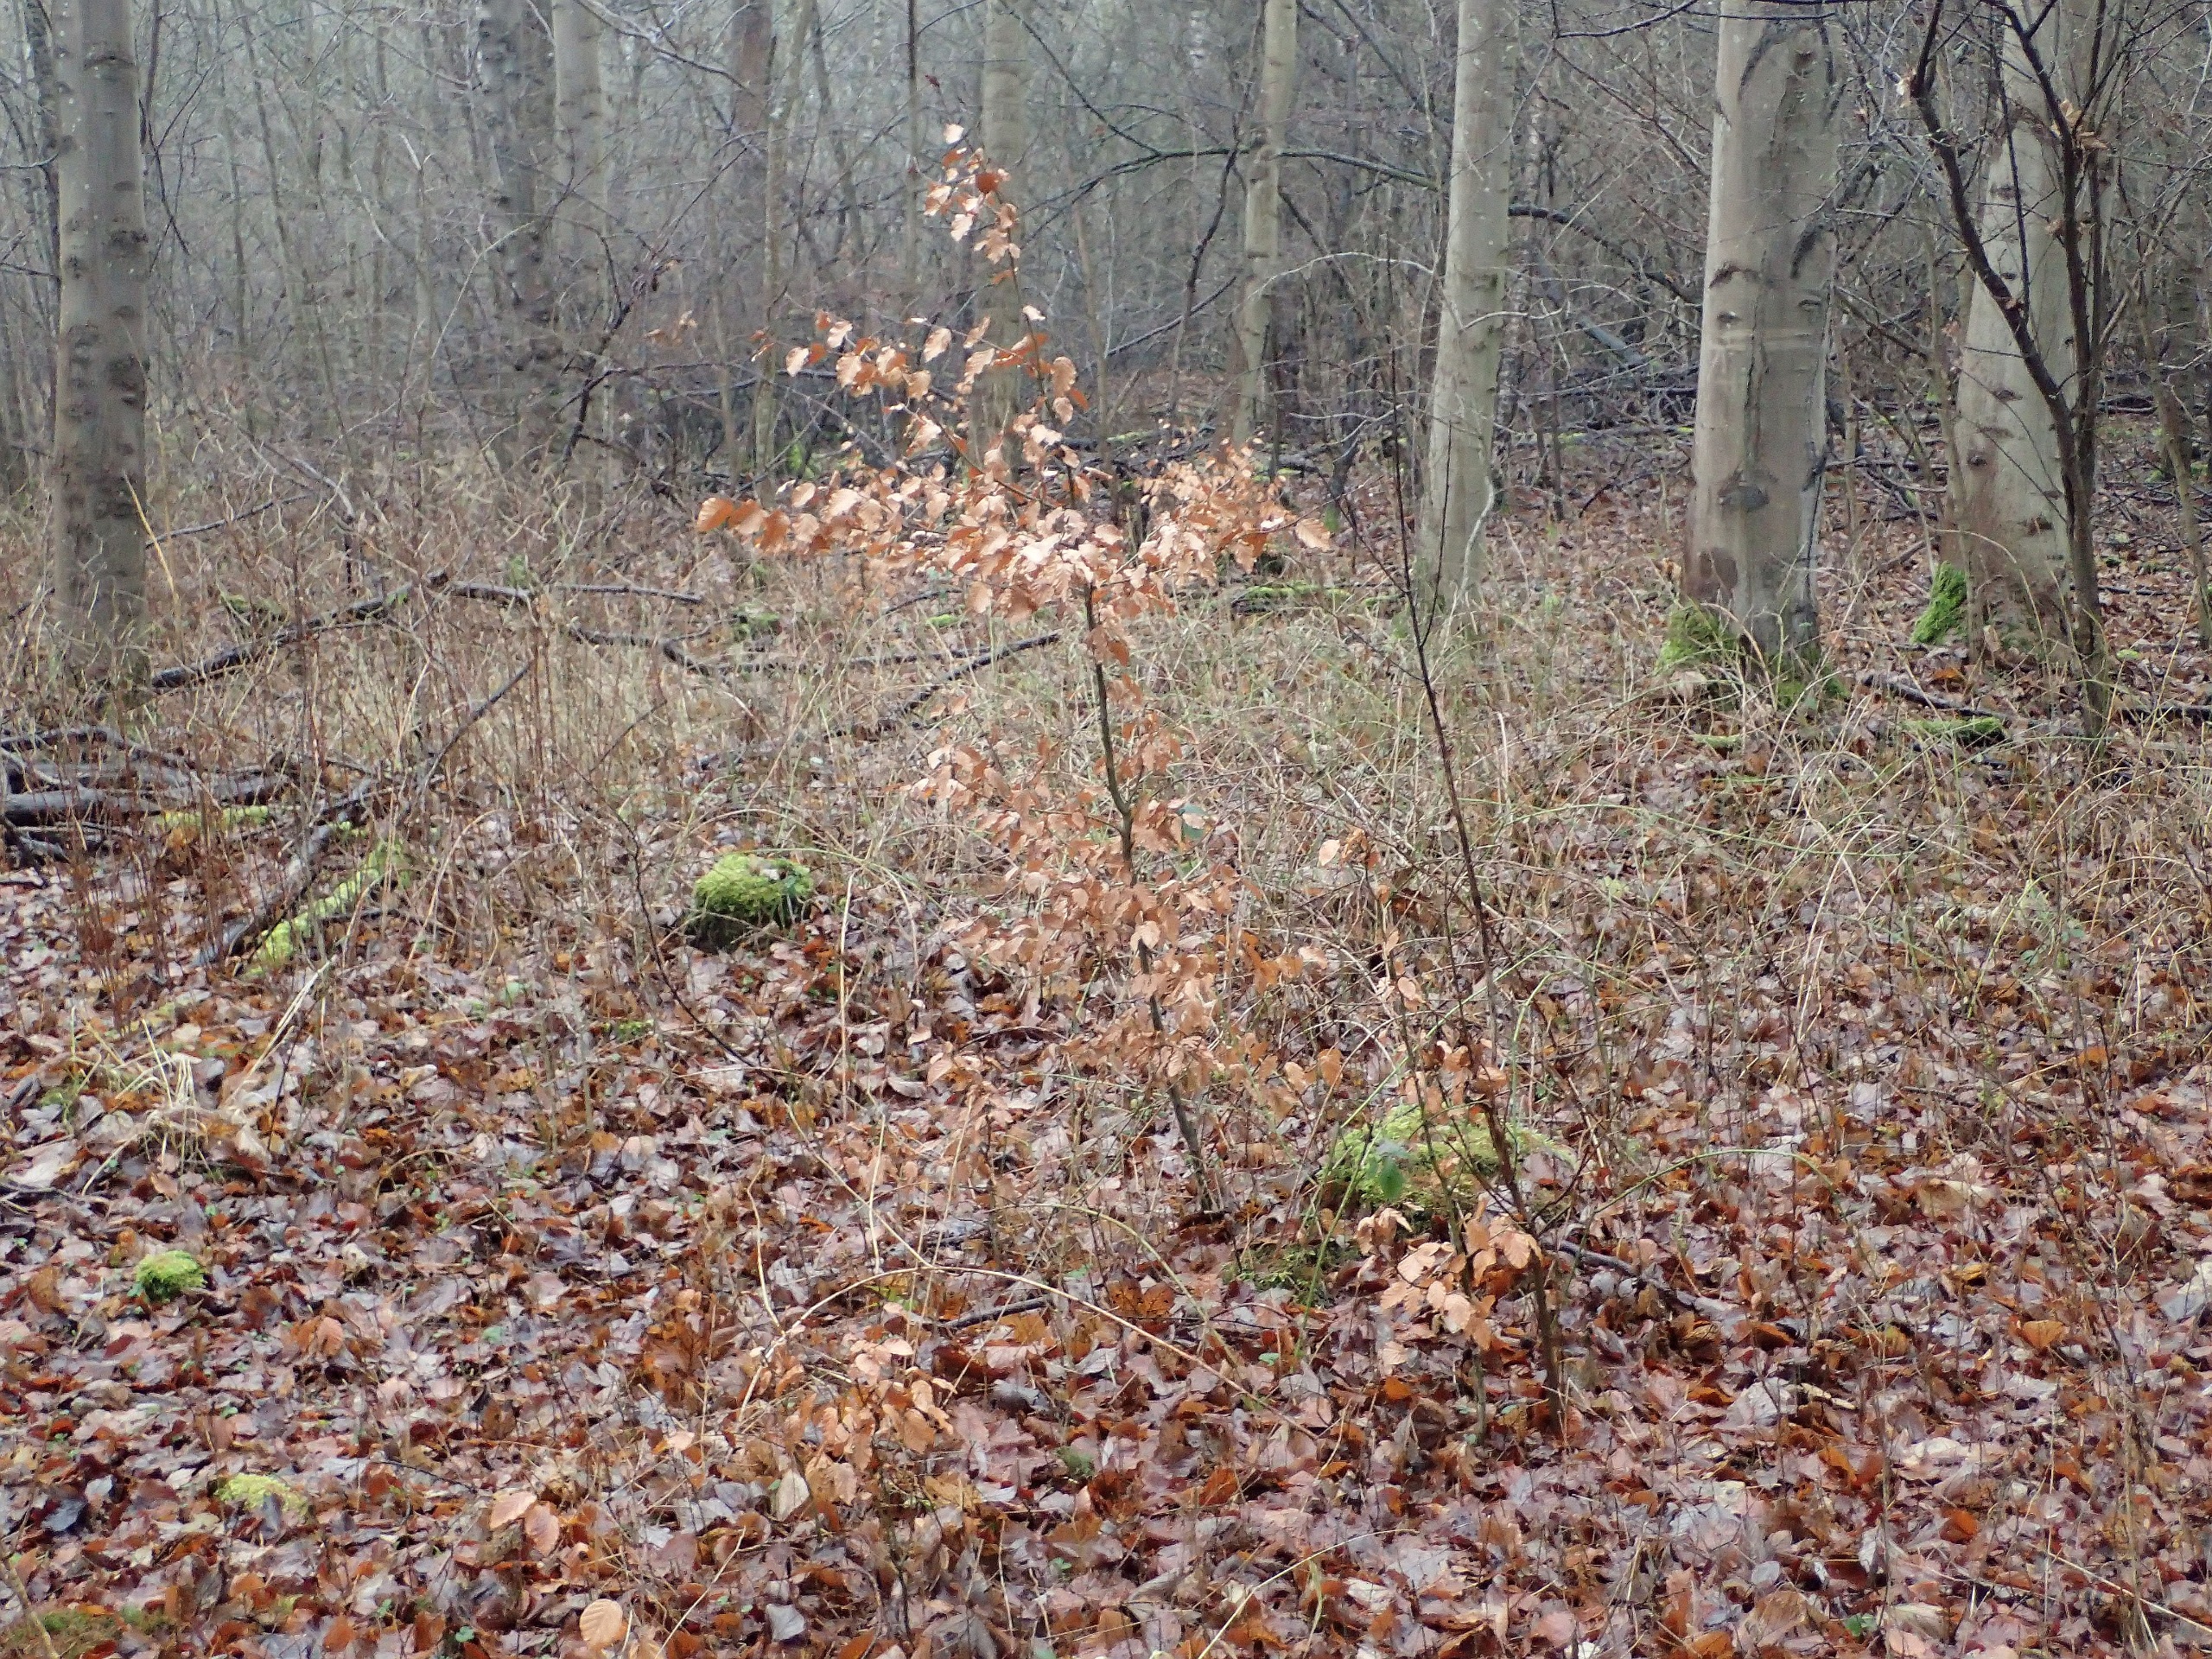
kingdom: Plantae
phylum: Tracheophyta
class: Magnoliopsida
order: Fagales
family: Fagaceae
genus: Fagus
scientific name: Fagus sylvatica
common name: Bøg
